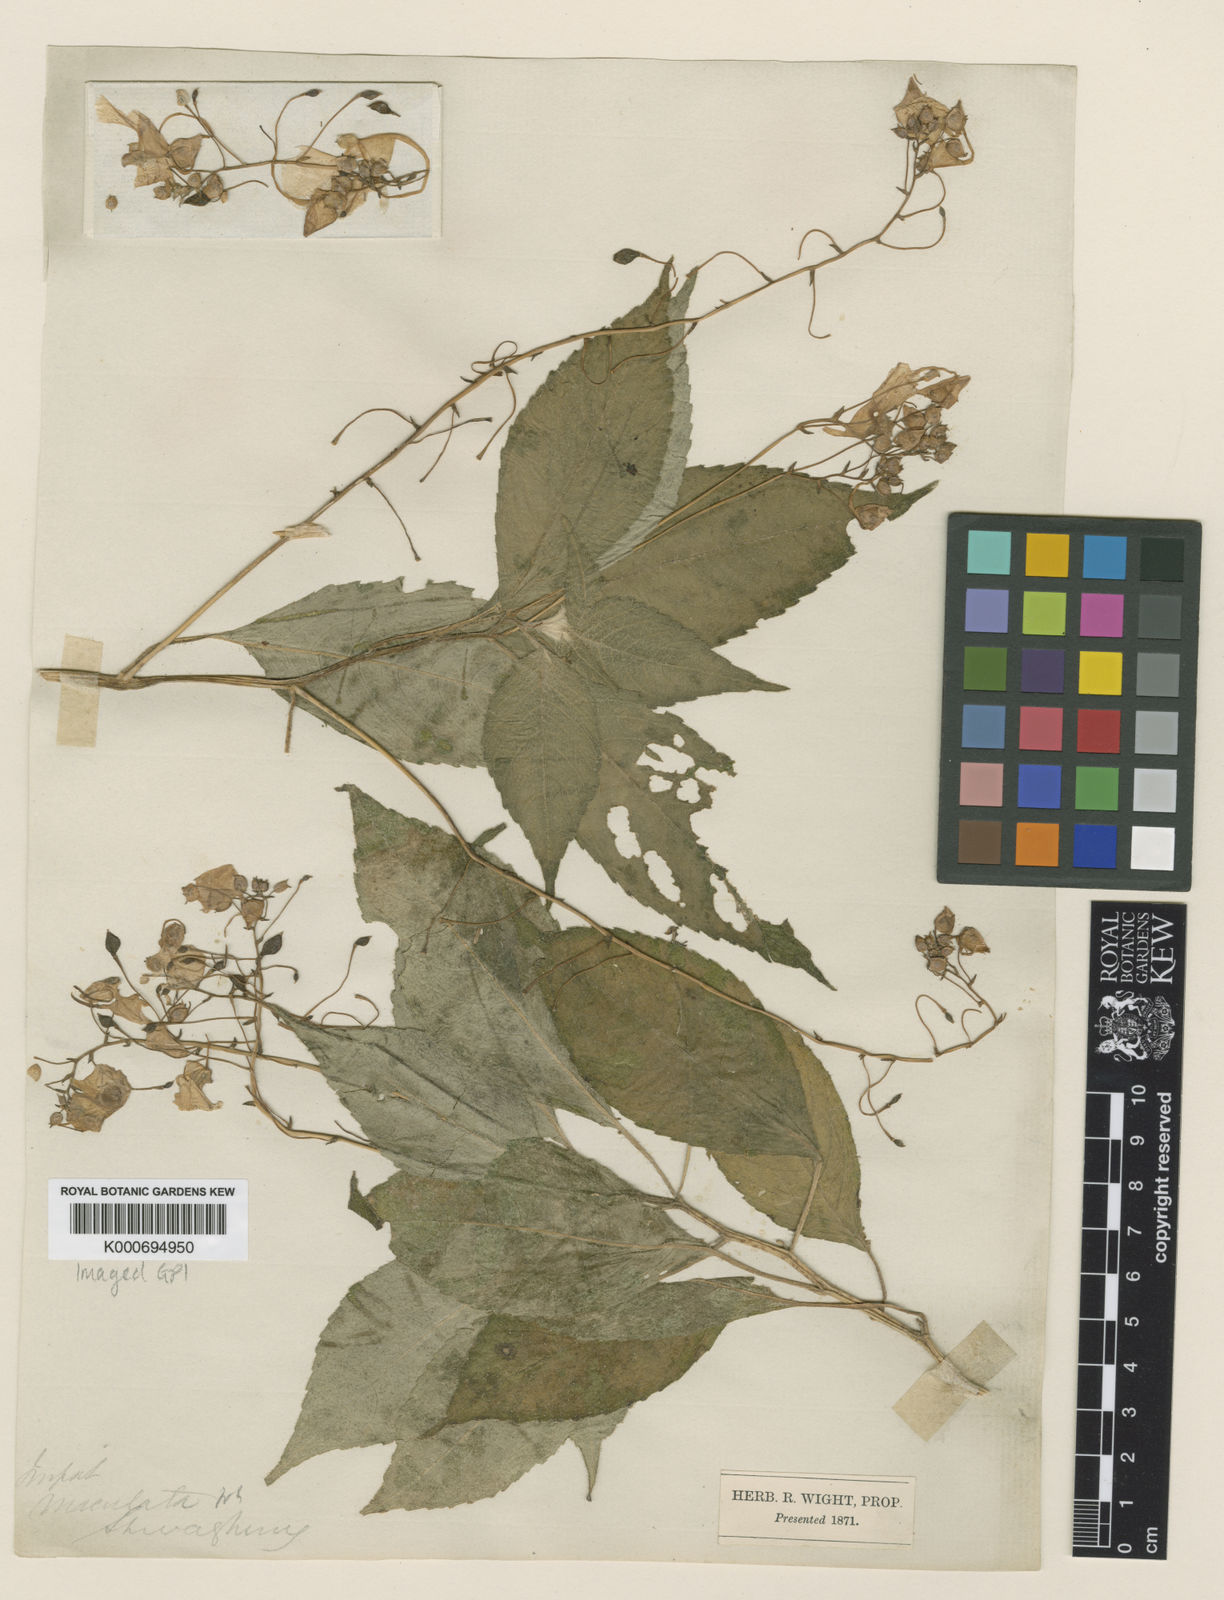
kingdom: Plantae
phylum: Tracheophyta
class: Magnoliopsida
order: Ericales
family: Balsaminaceae
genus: Impatiens
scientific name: Impatiens maculata
